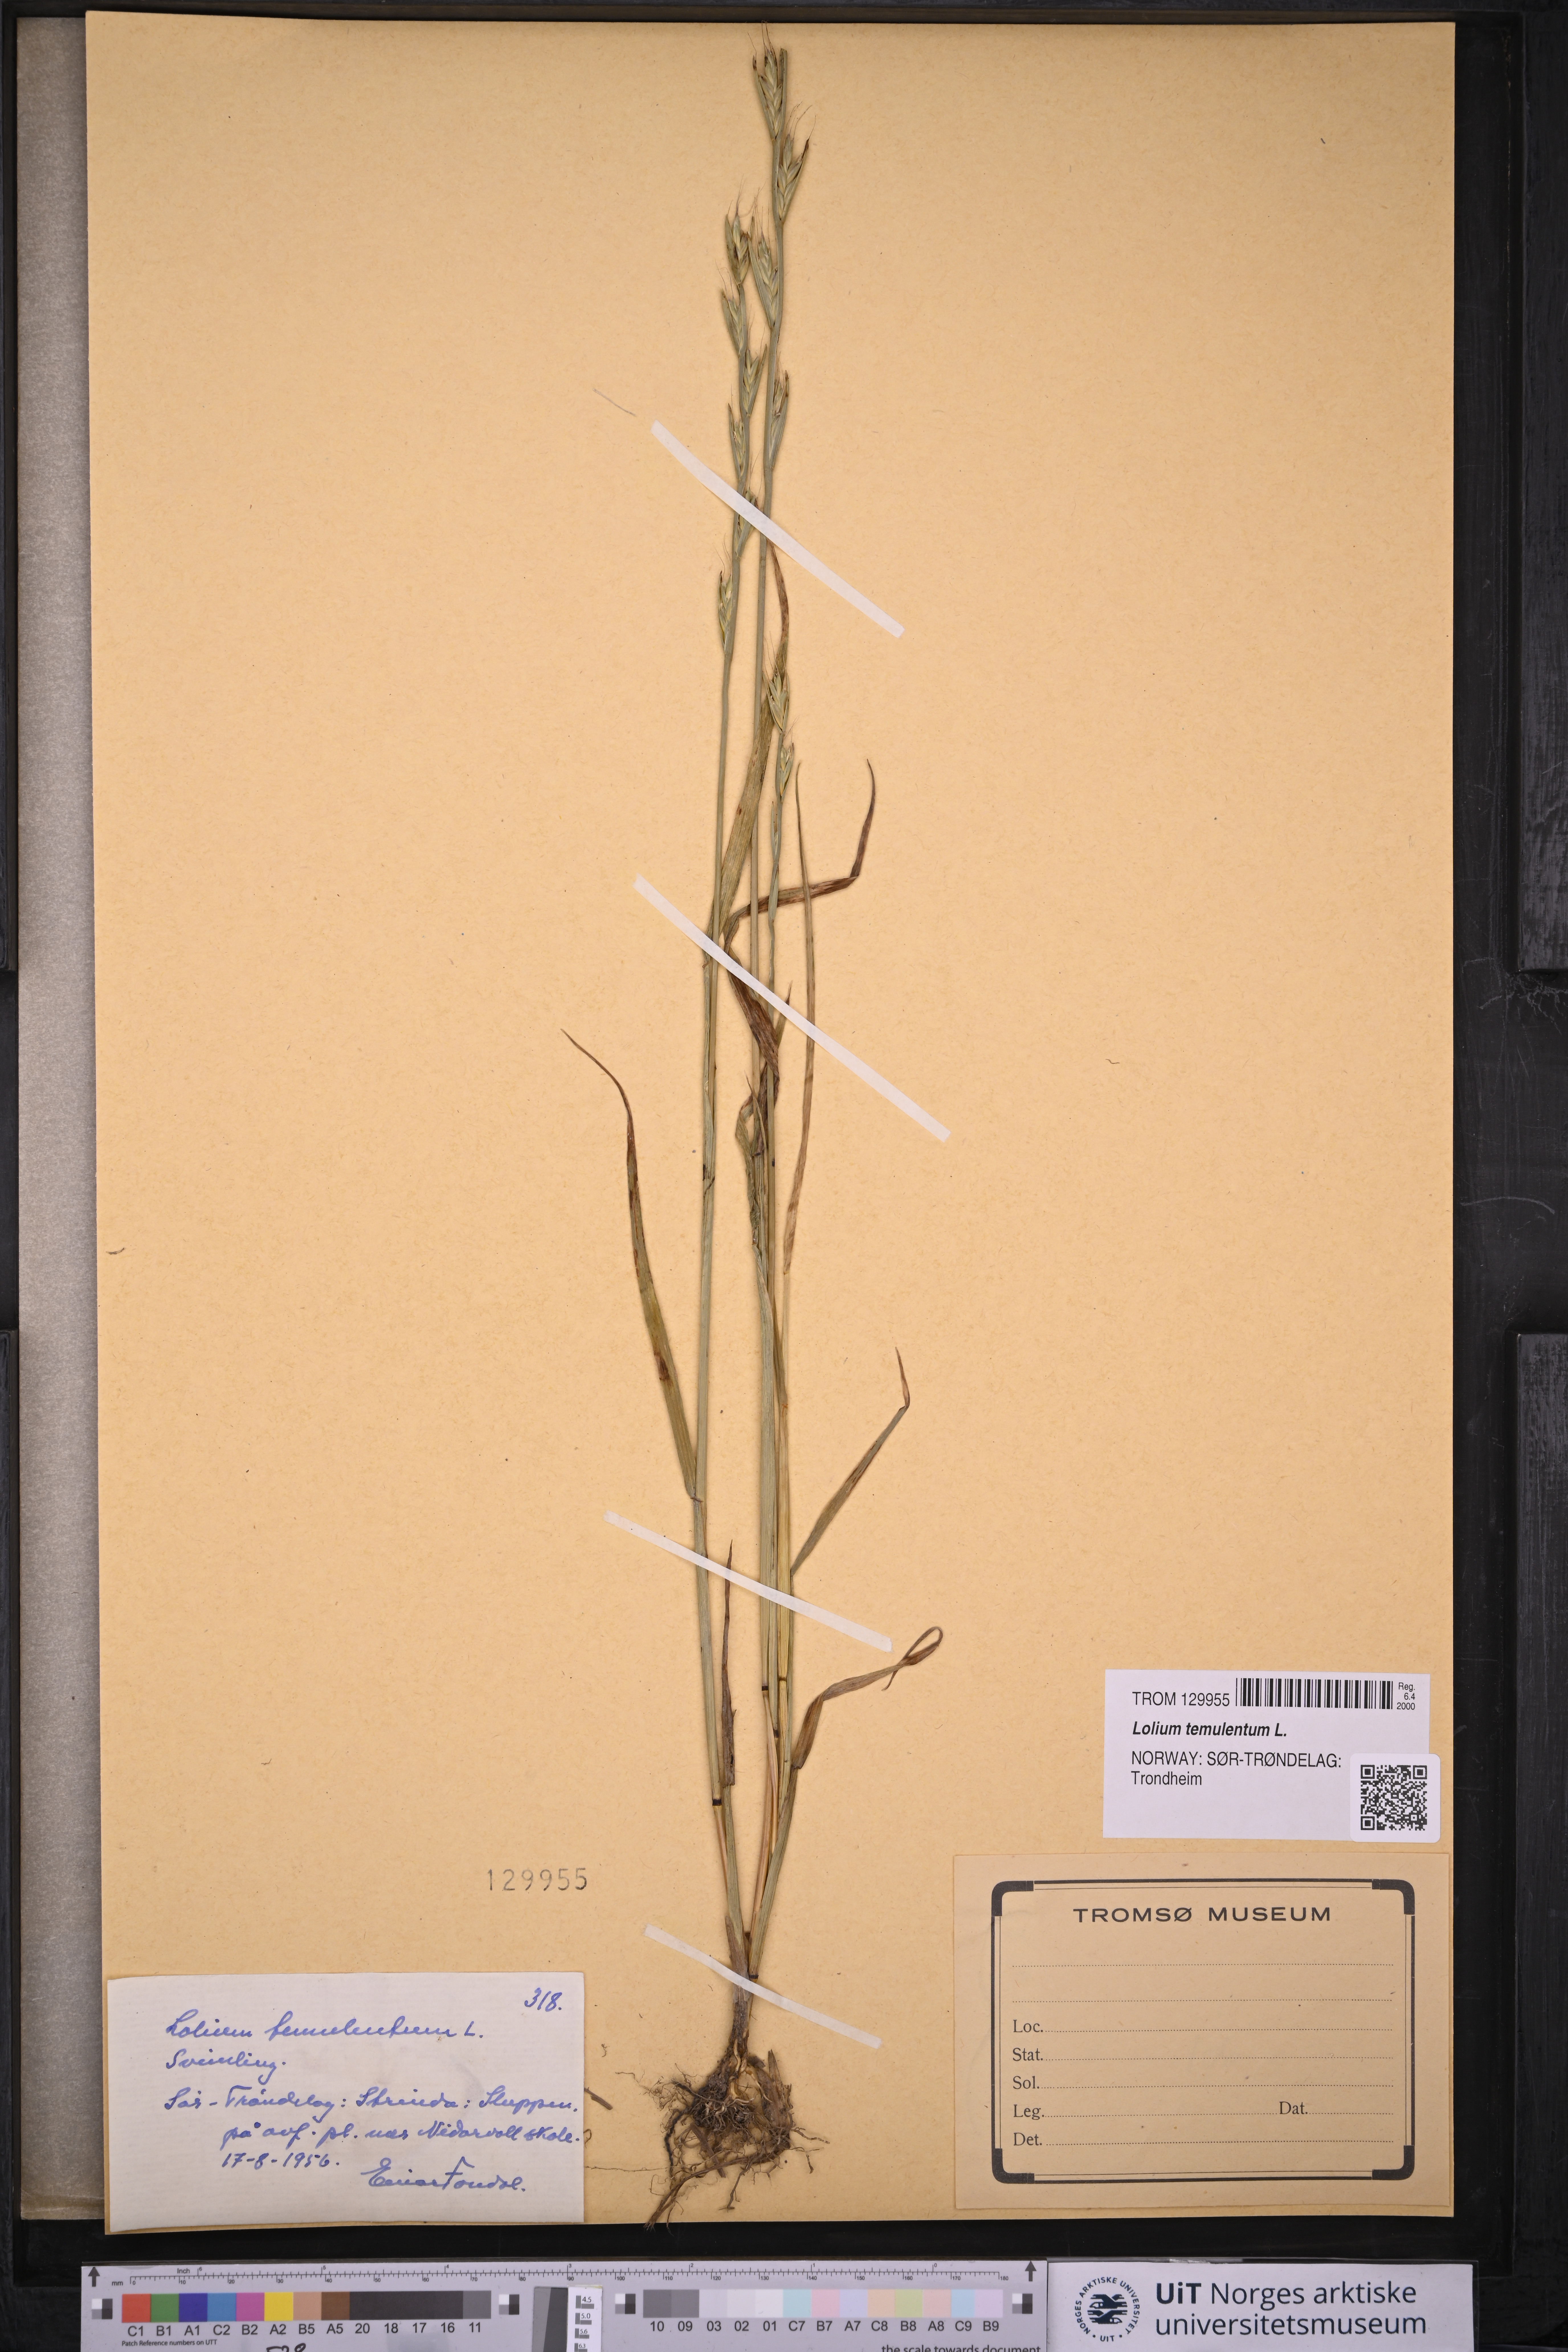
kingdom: Plantae
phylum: Tracheophyta
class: Liliopsida
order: Poales
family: Poaceae
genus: Lolium
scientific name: Lolium temulentum
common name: Darnel
